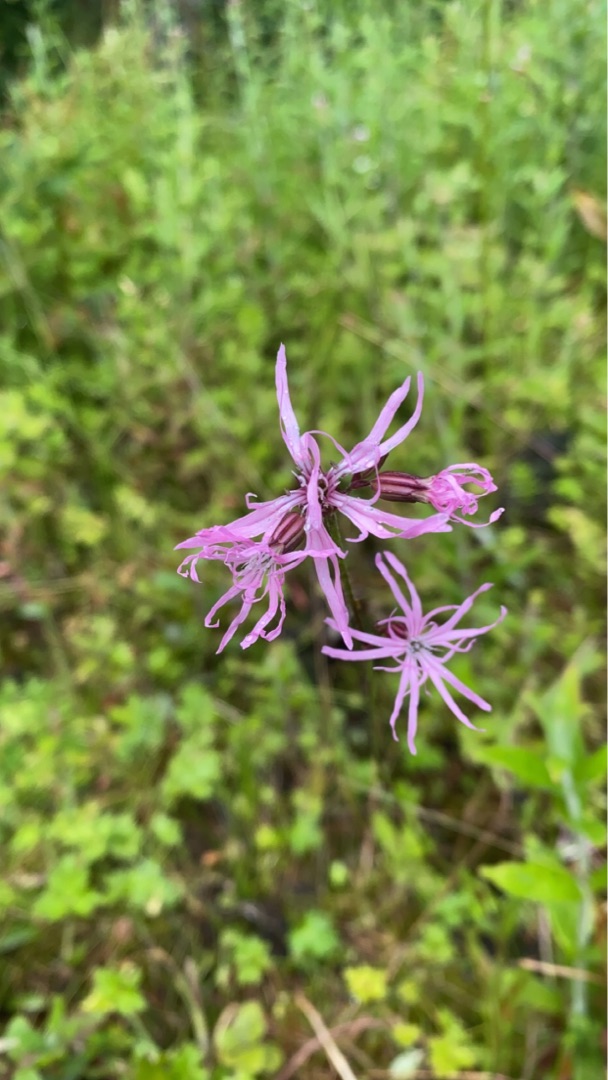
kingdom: Plantae
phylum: Tracheophyta
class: Magnoliopsida
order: Caryophyllales
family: Caryophyllaceae
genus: Silene
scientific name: Silene flos-cuculi
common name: Trævlekrone
